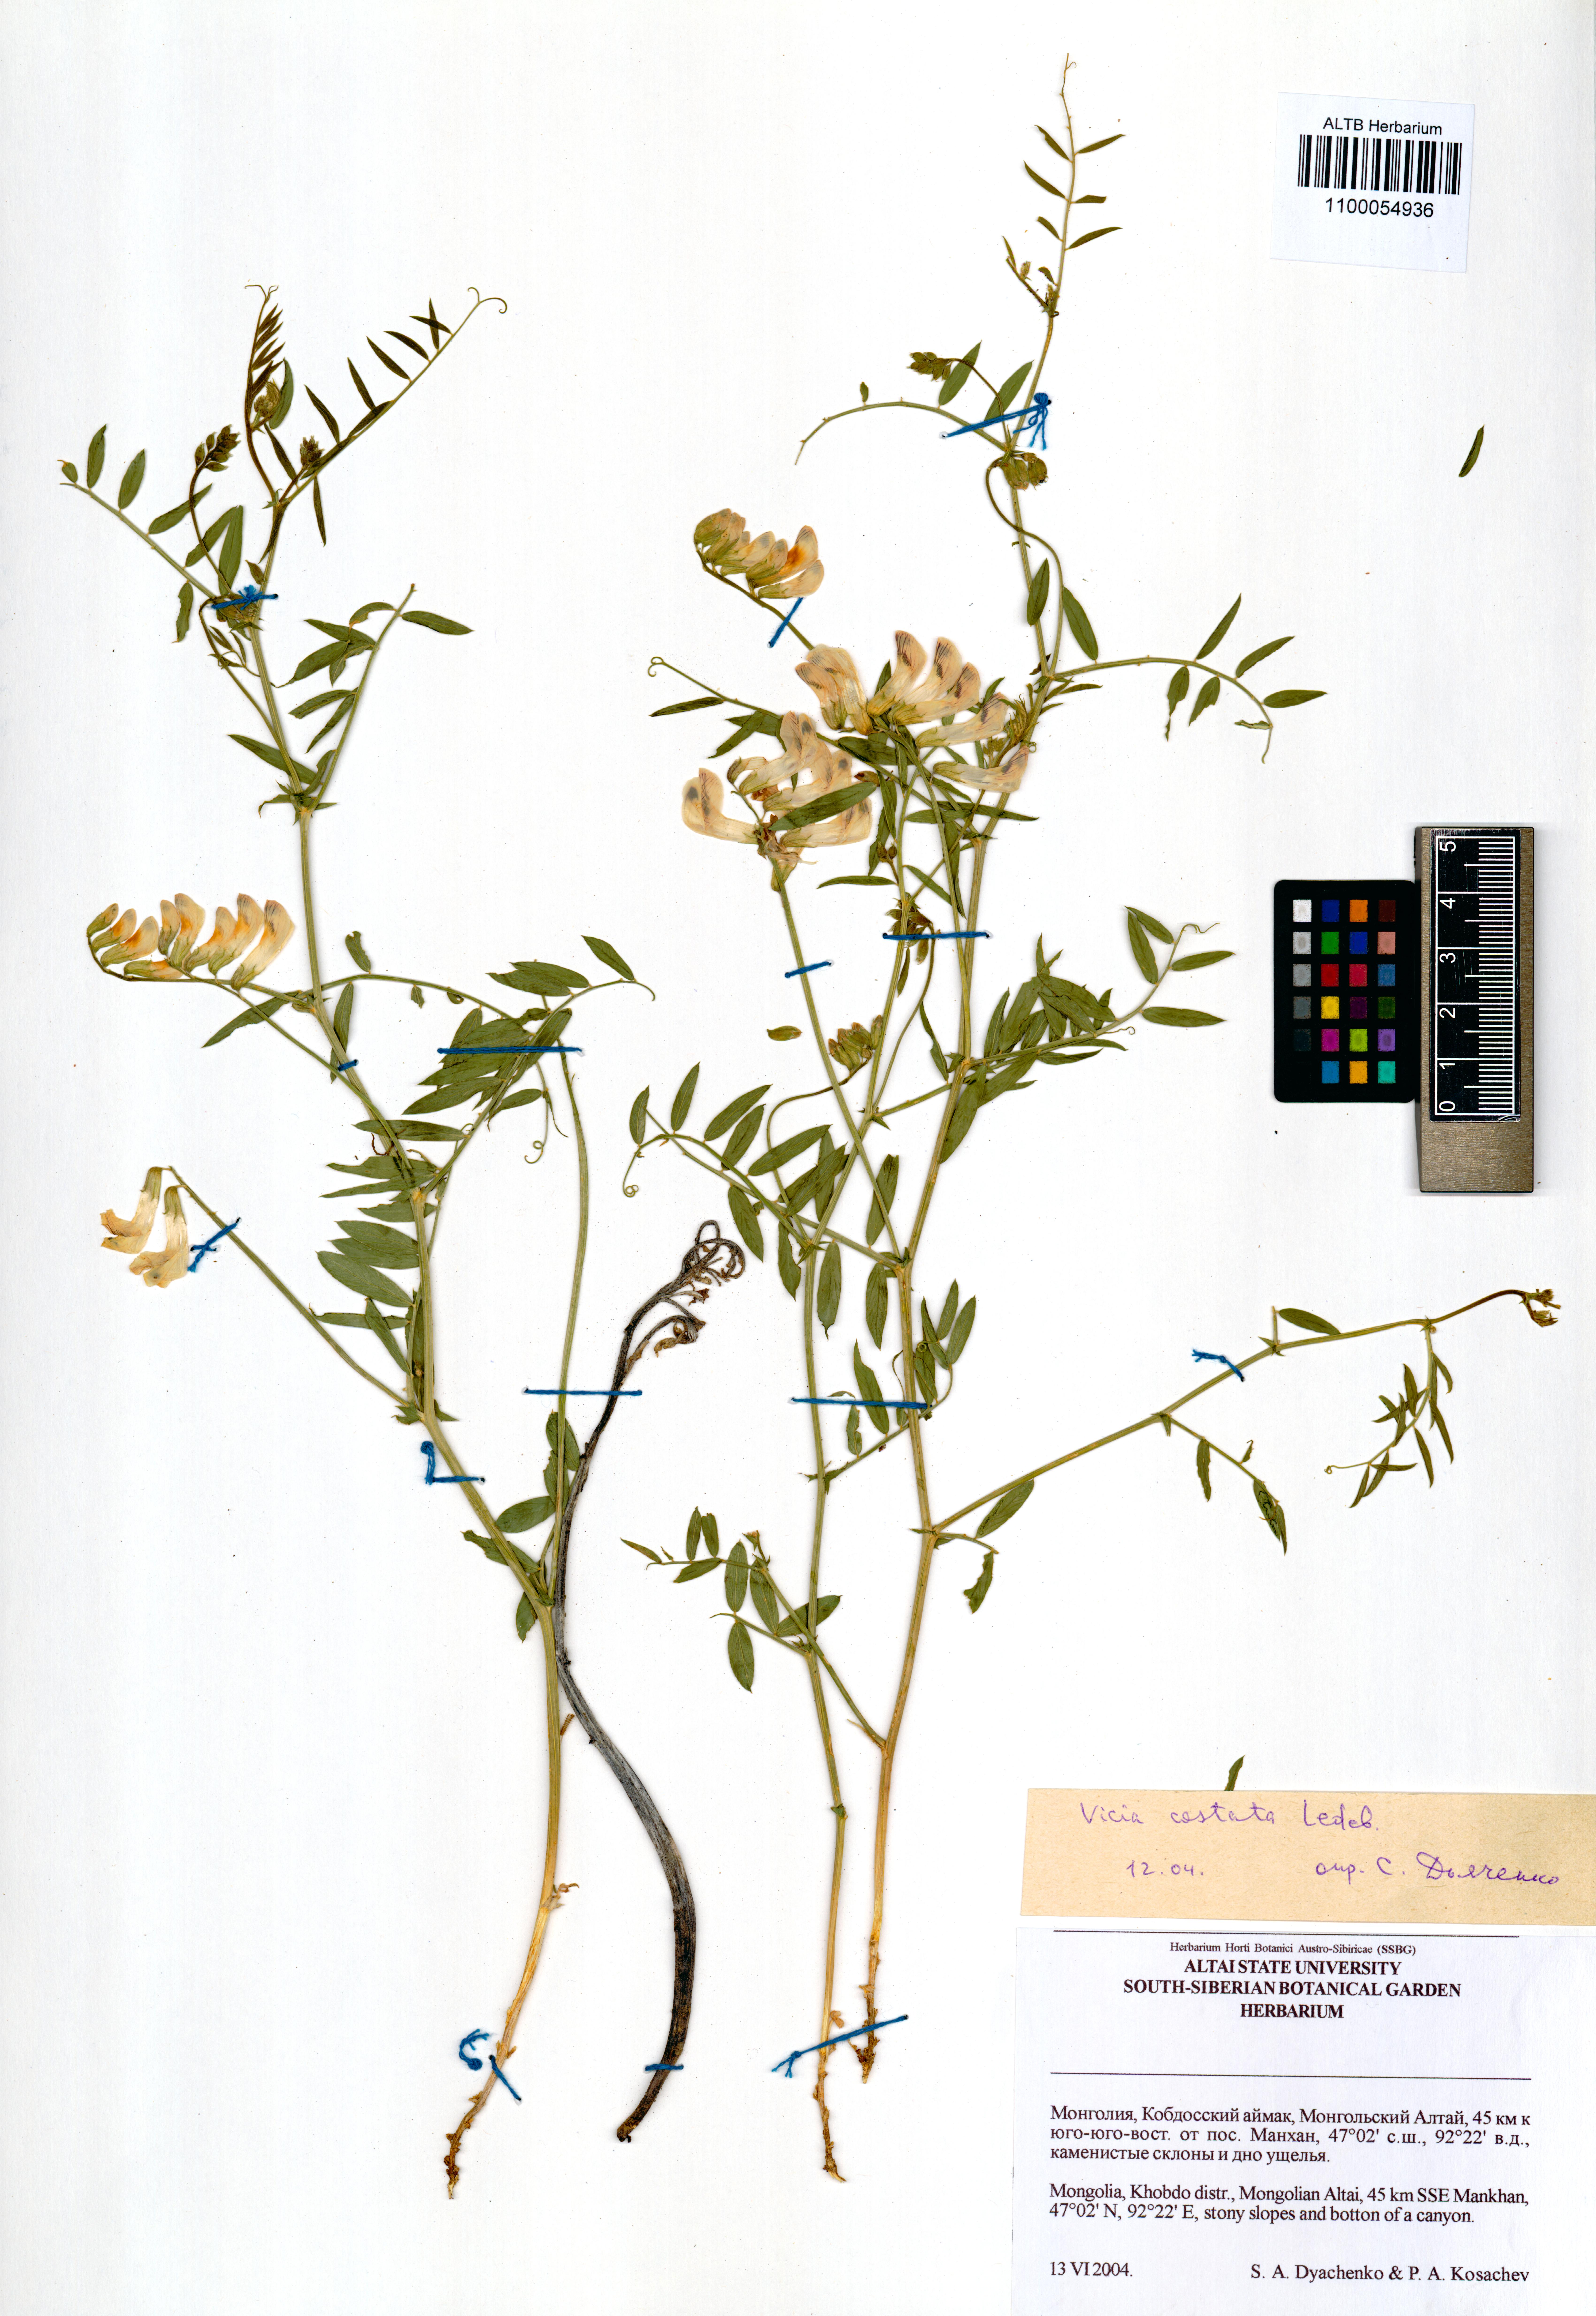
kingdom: Plantae
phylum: Tracheophyta
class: Magnoliopsida
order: Fabales
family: Fabaceae
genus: Vicia
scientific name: Vicia costata
